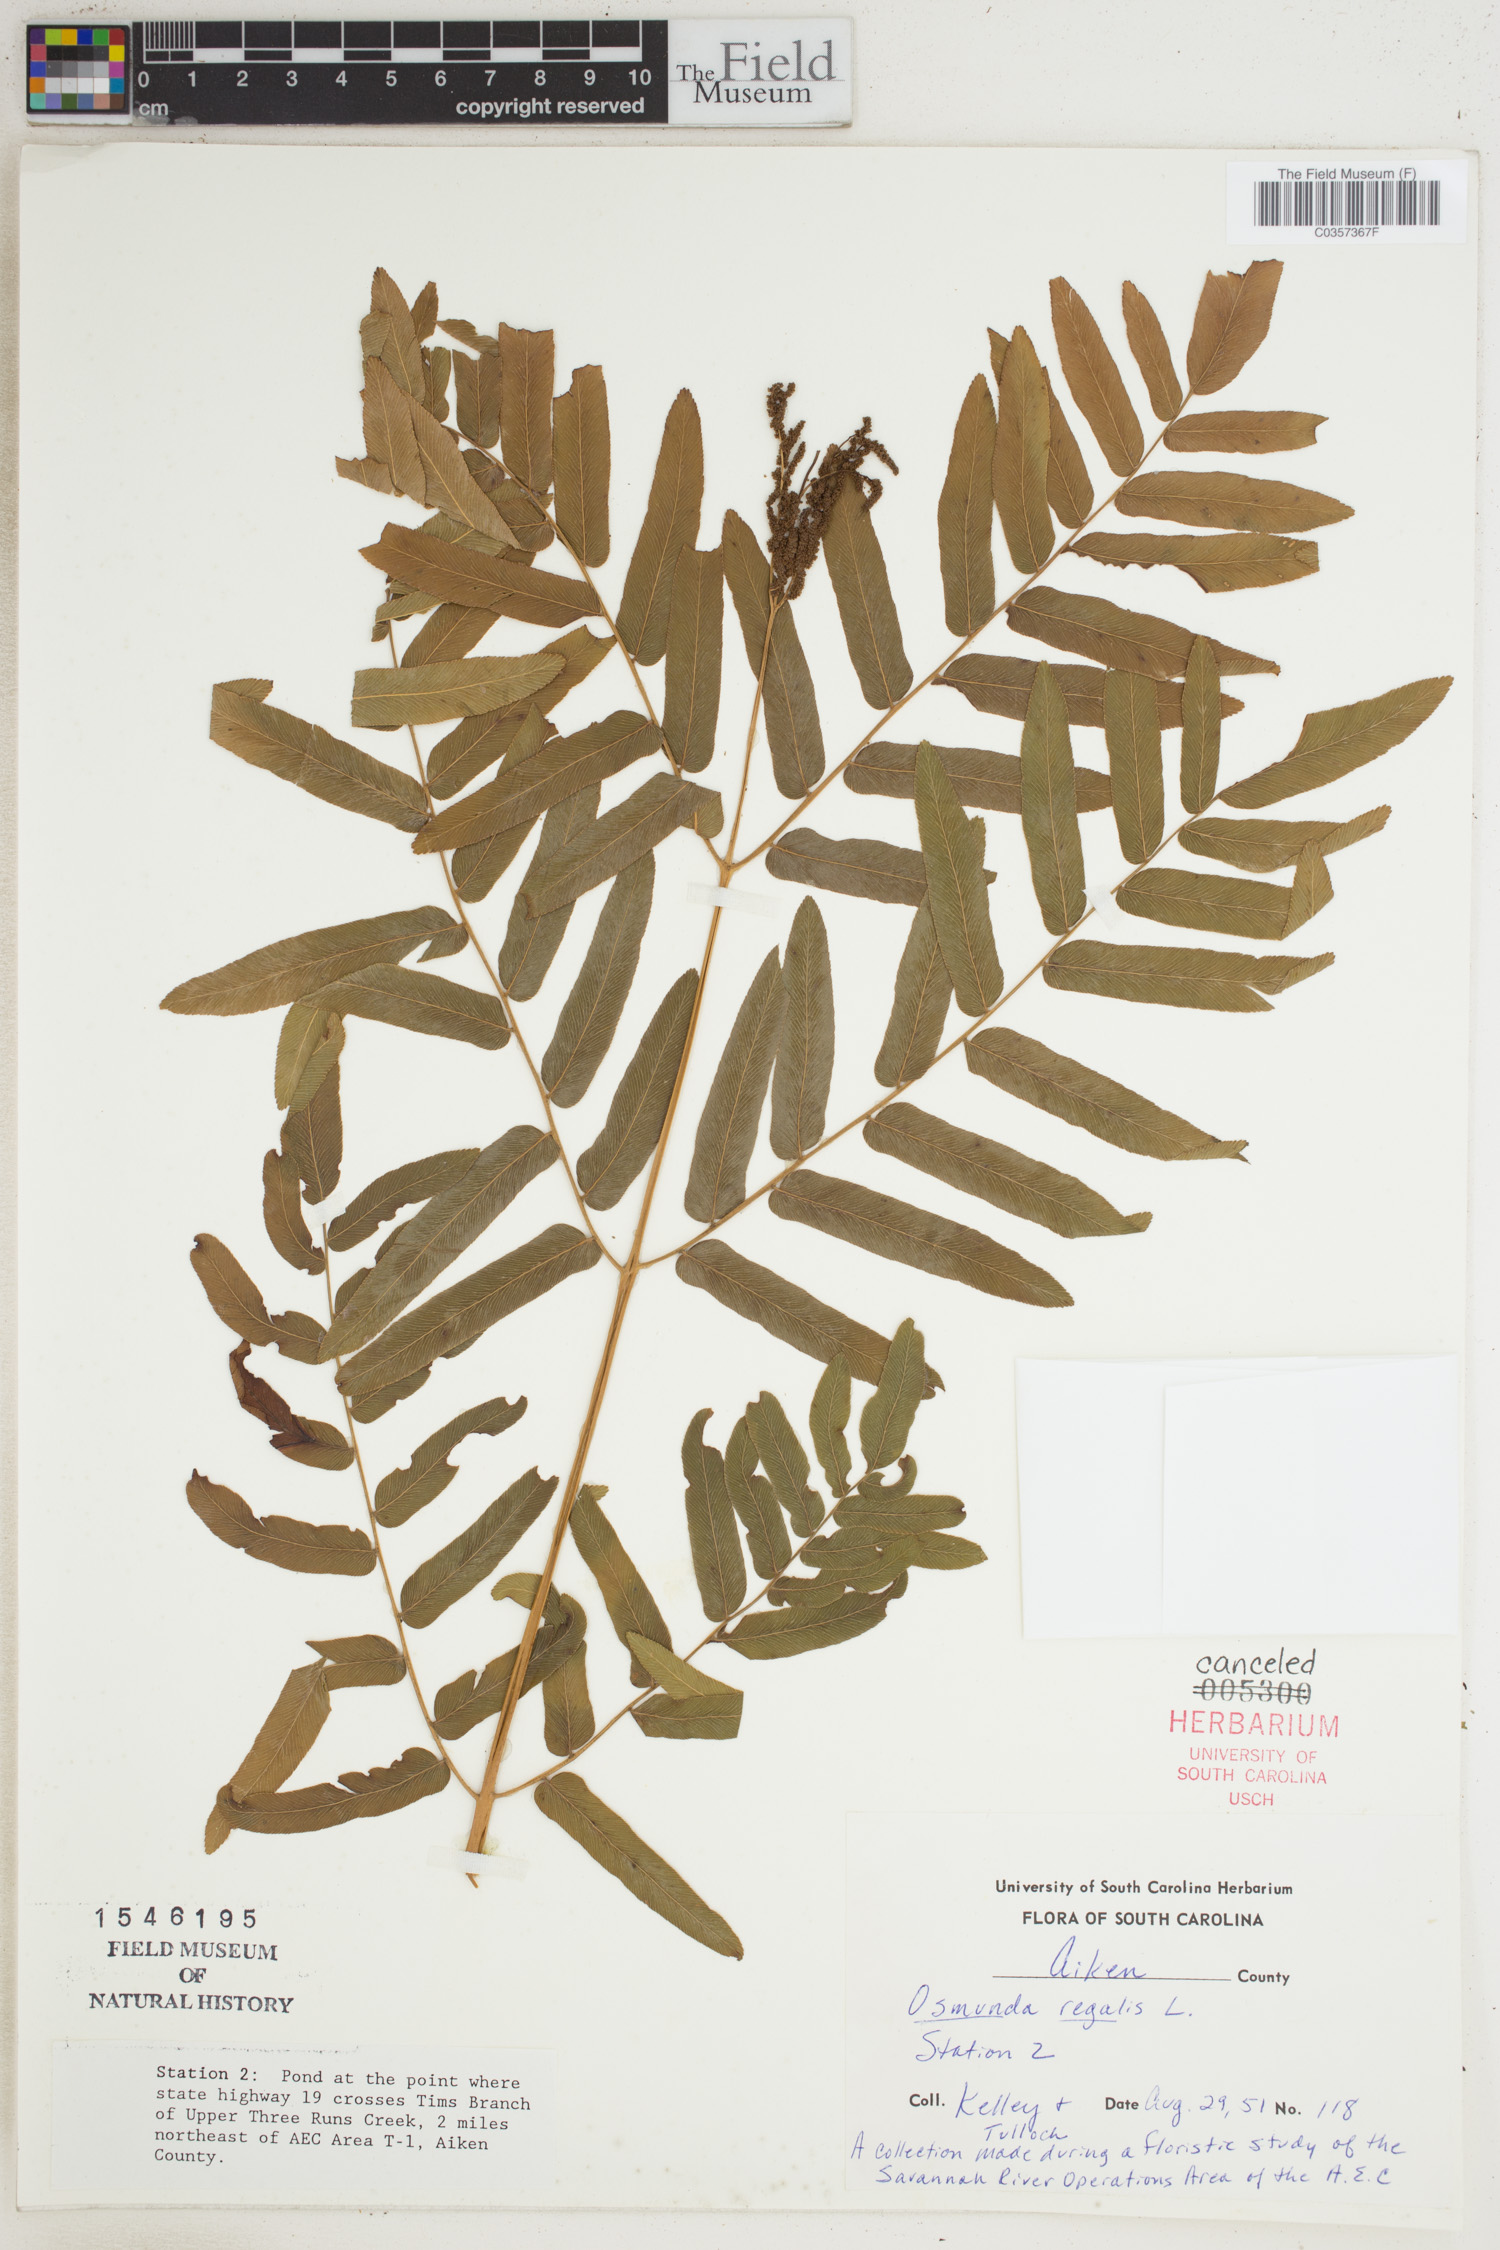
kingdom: Plantae
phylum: Tracheophyta
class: Polypodiopsida
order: Osmundales
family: Osmundaceae
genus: Osmunda
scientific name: Osmunda regalis
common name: Royal fern
